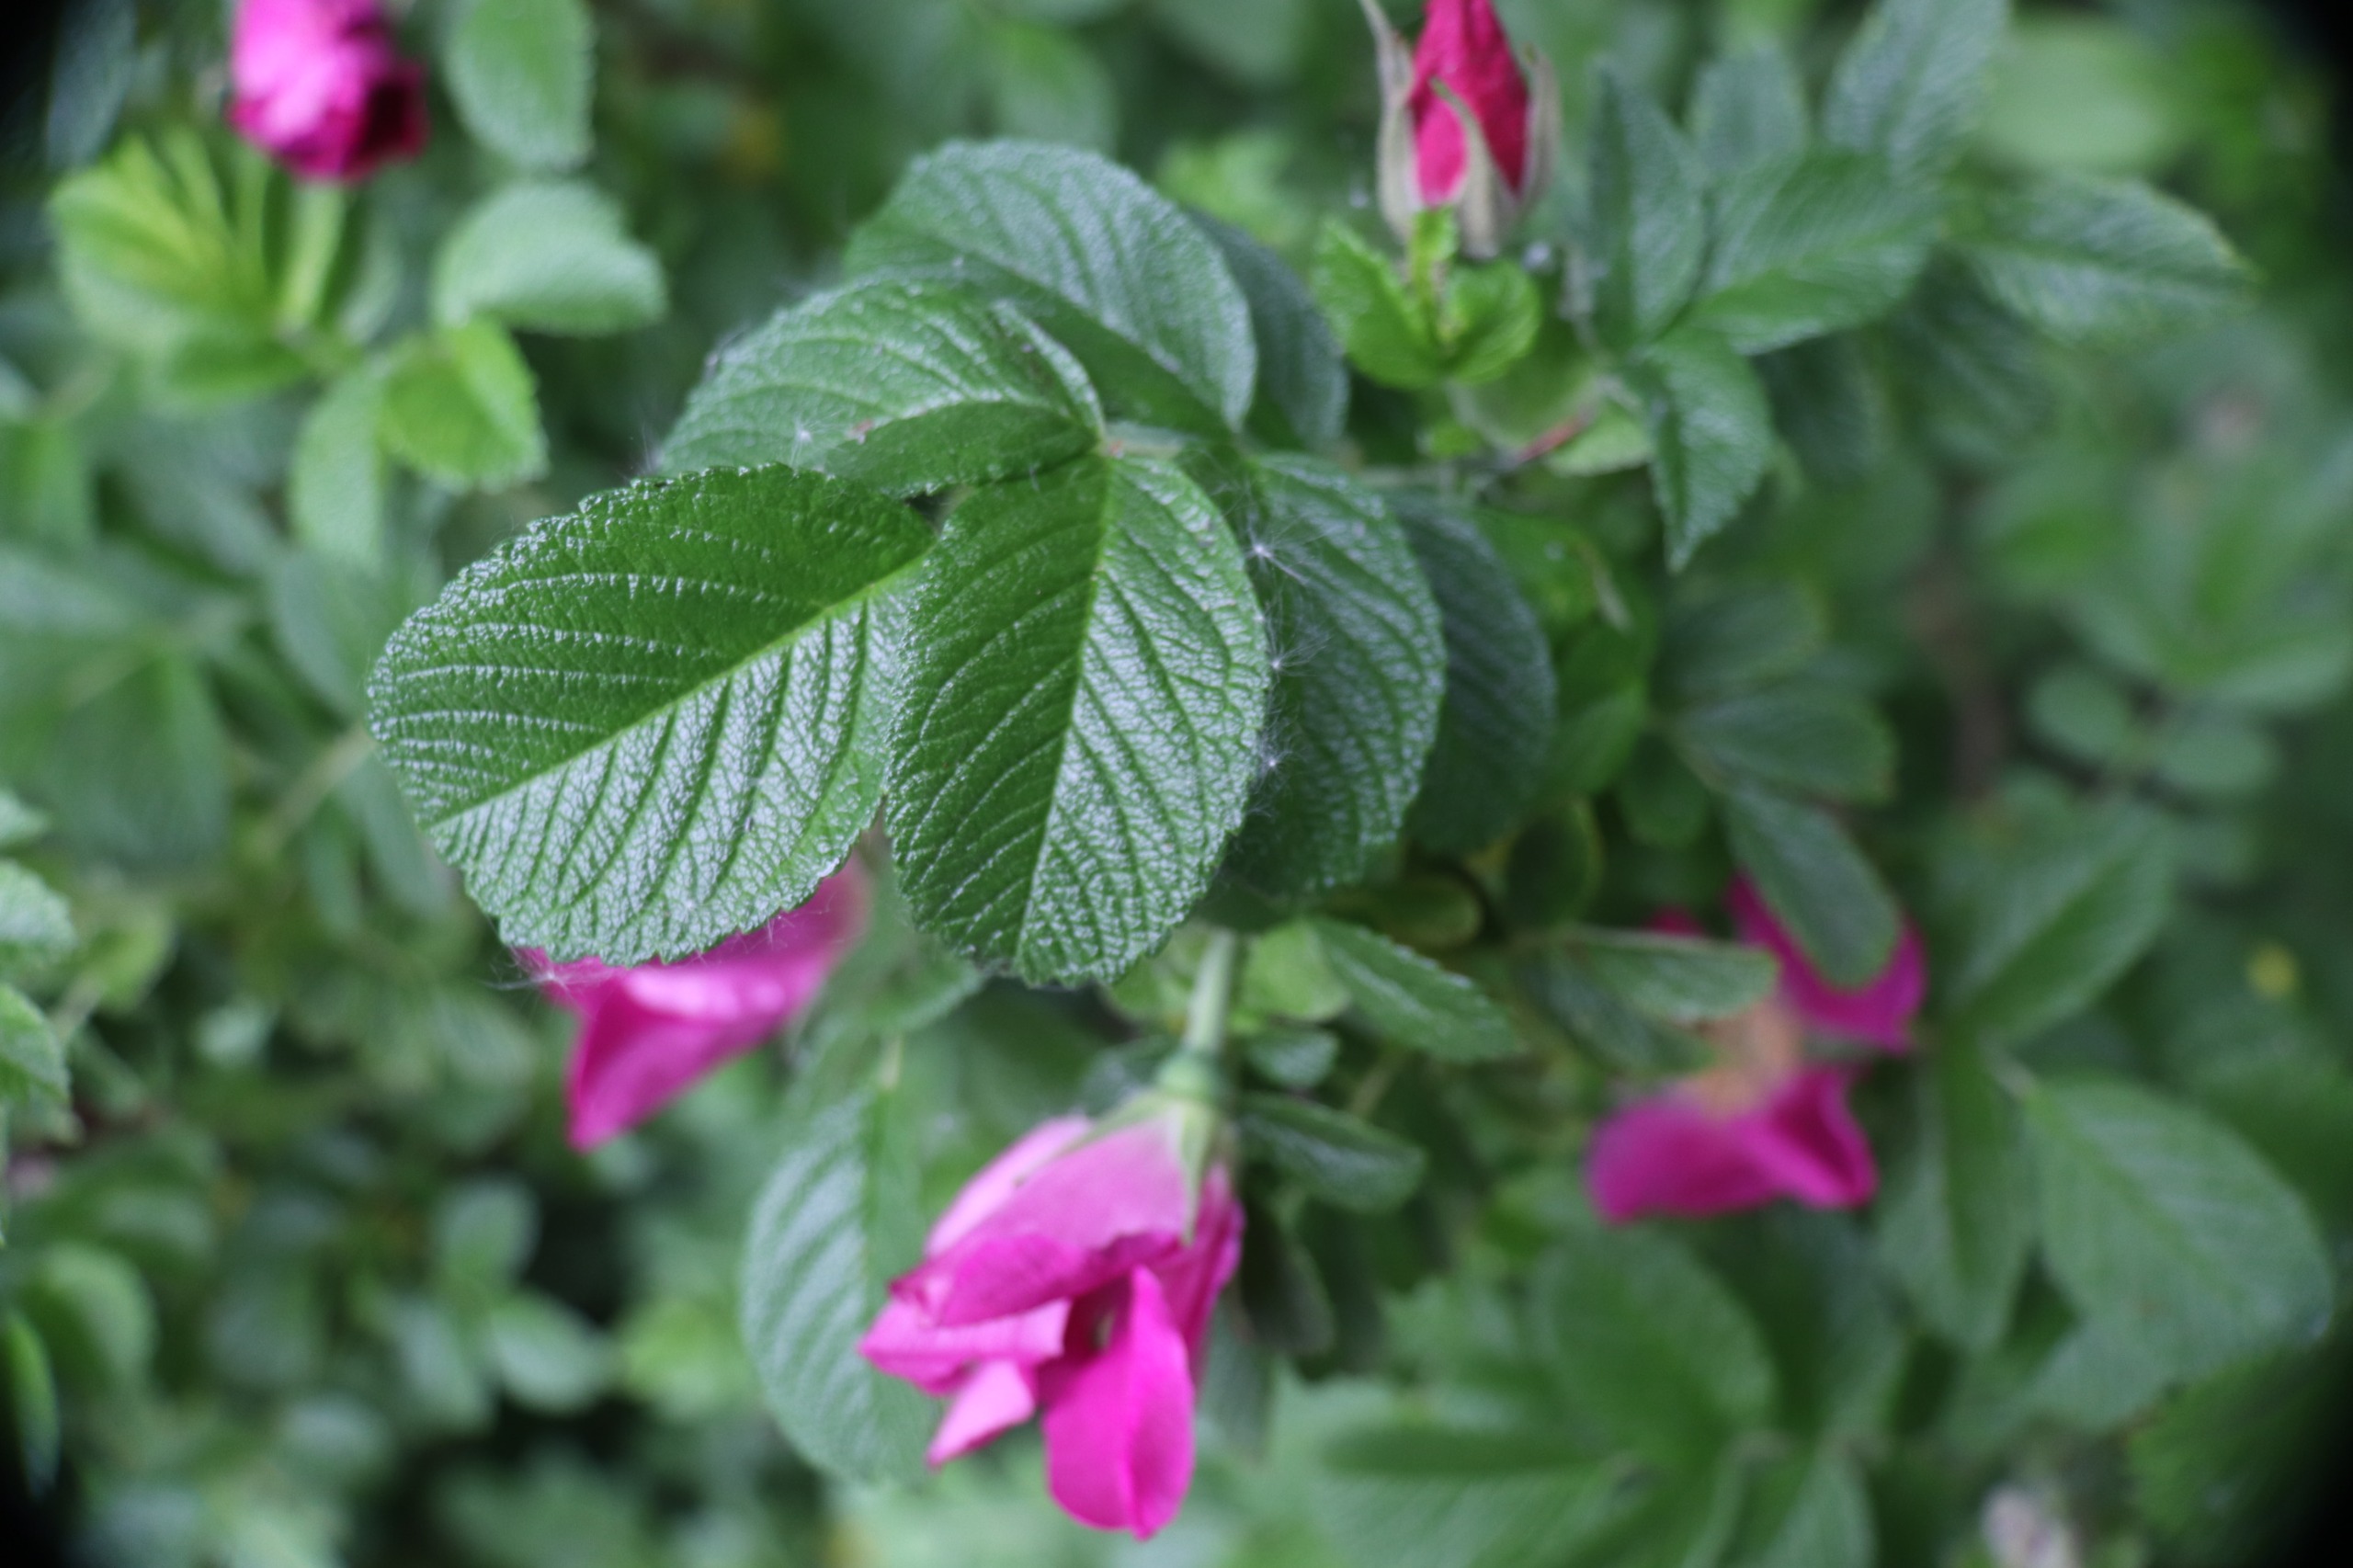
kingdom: Plantae
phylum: Tracheophyta
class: Magnoliopsida
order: Rosales
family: Rosaceae
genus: Rosa
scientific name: Rosa rugosa
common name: Rynket rose
